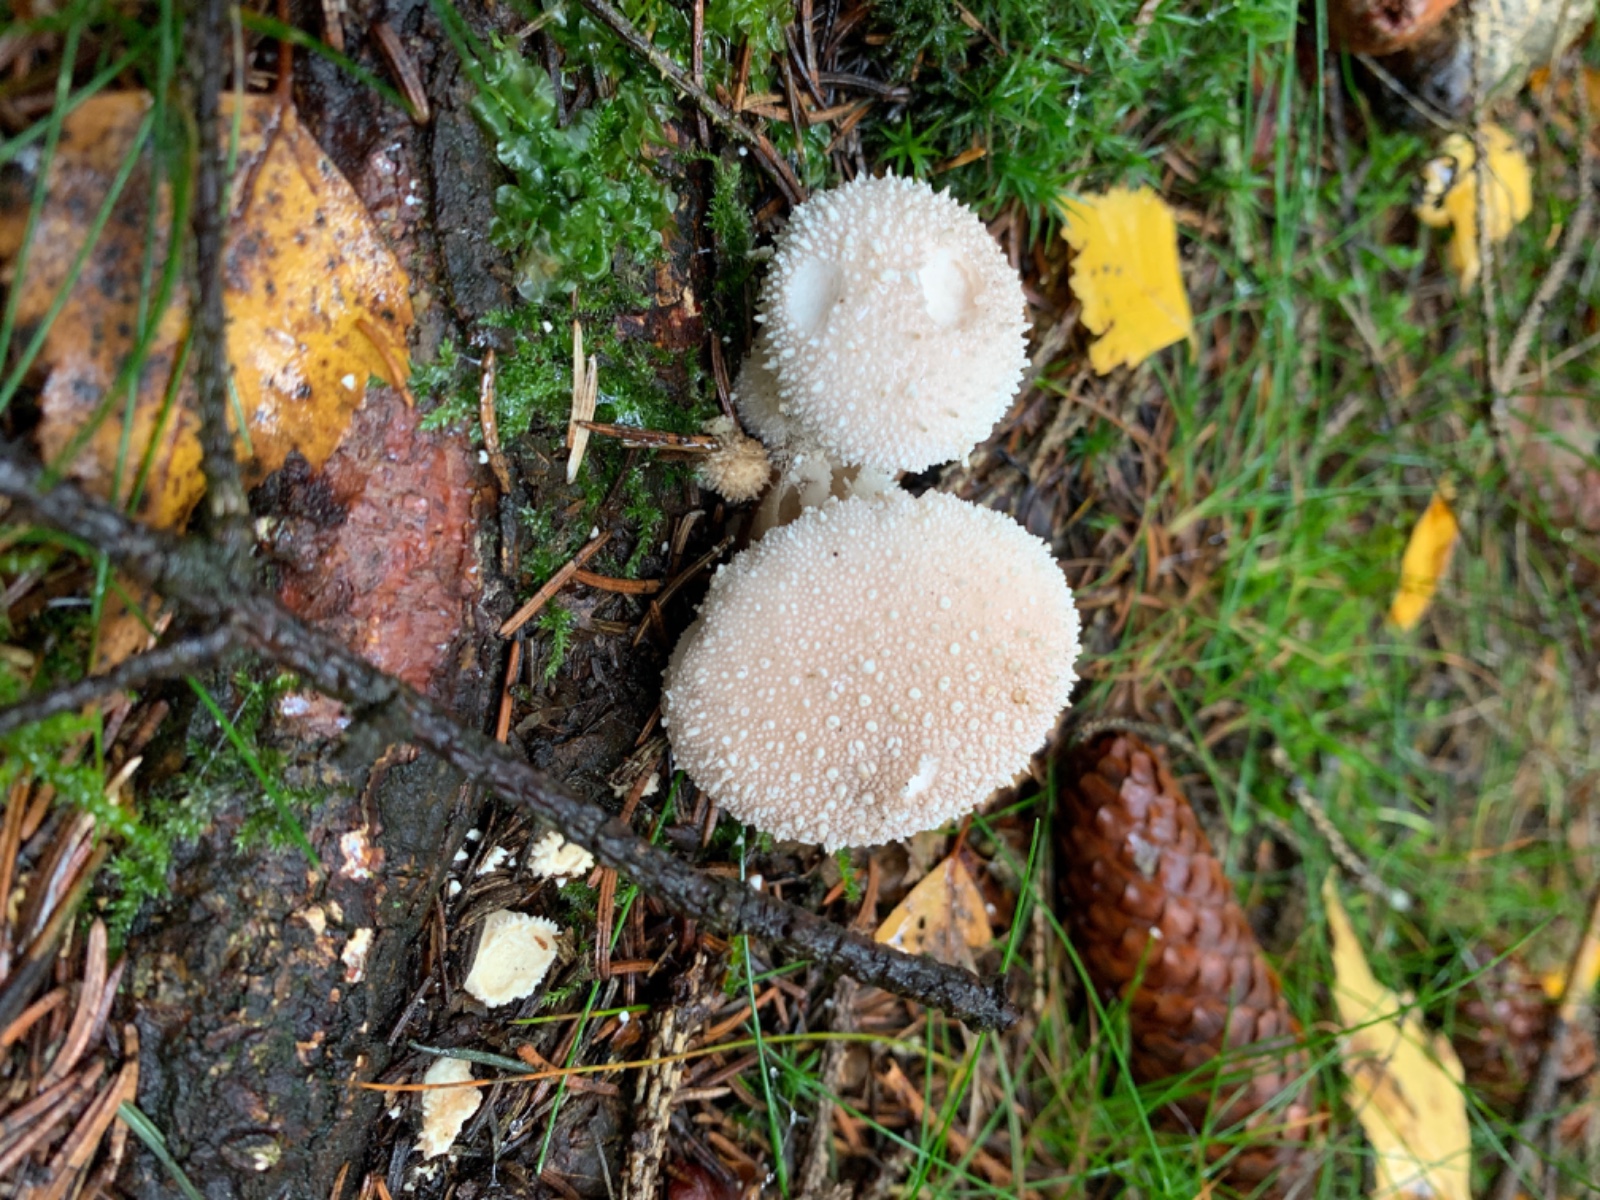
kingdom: Fungi
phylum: Basidiomycota
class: Agaricomycetes
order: Agaricales
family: Lycoperdaceae
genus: Lycoperdon
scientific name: Lycoperdon perlatum
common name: krystal-støvbold
